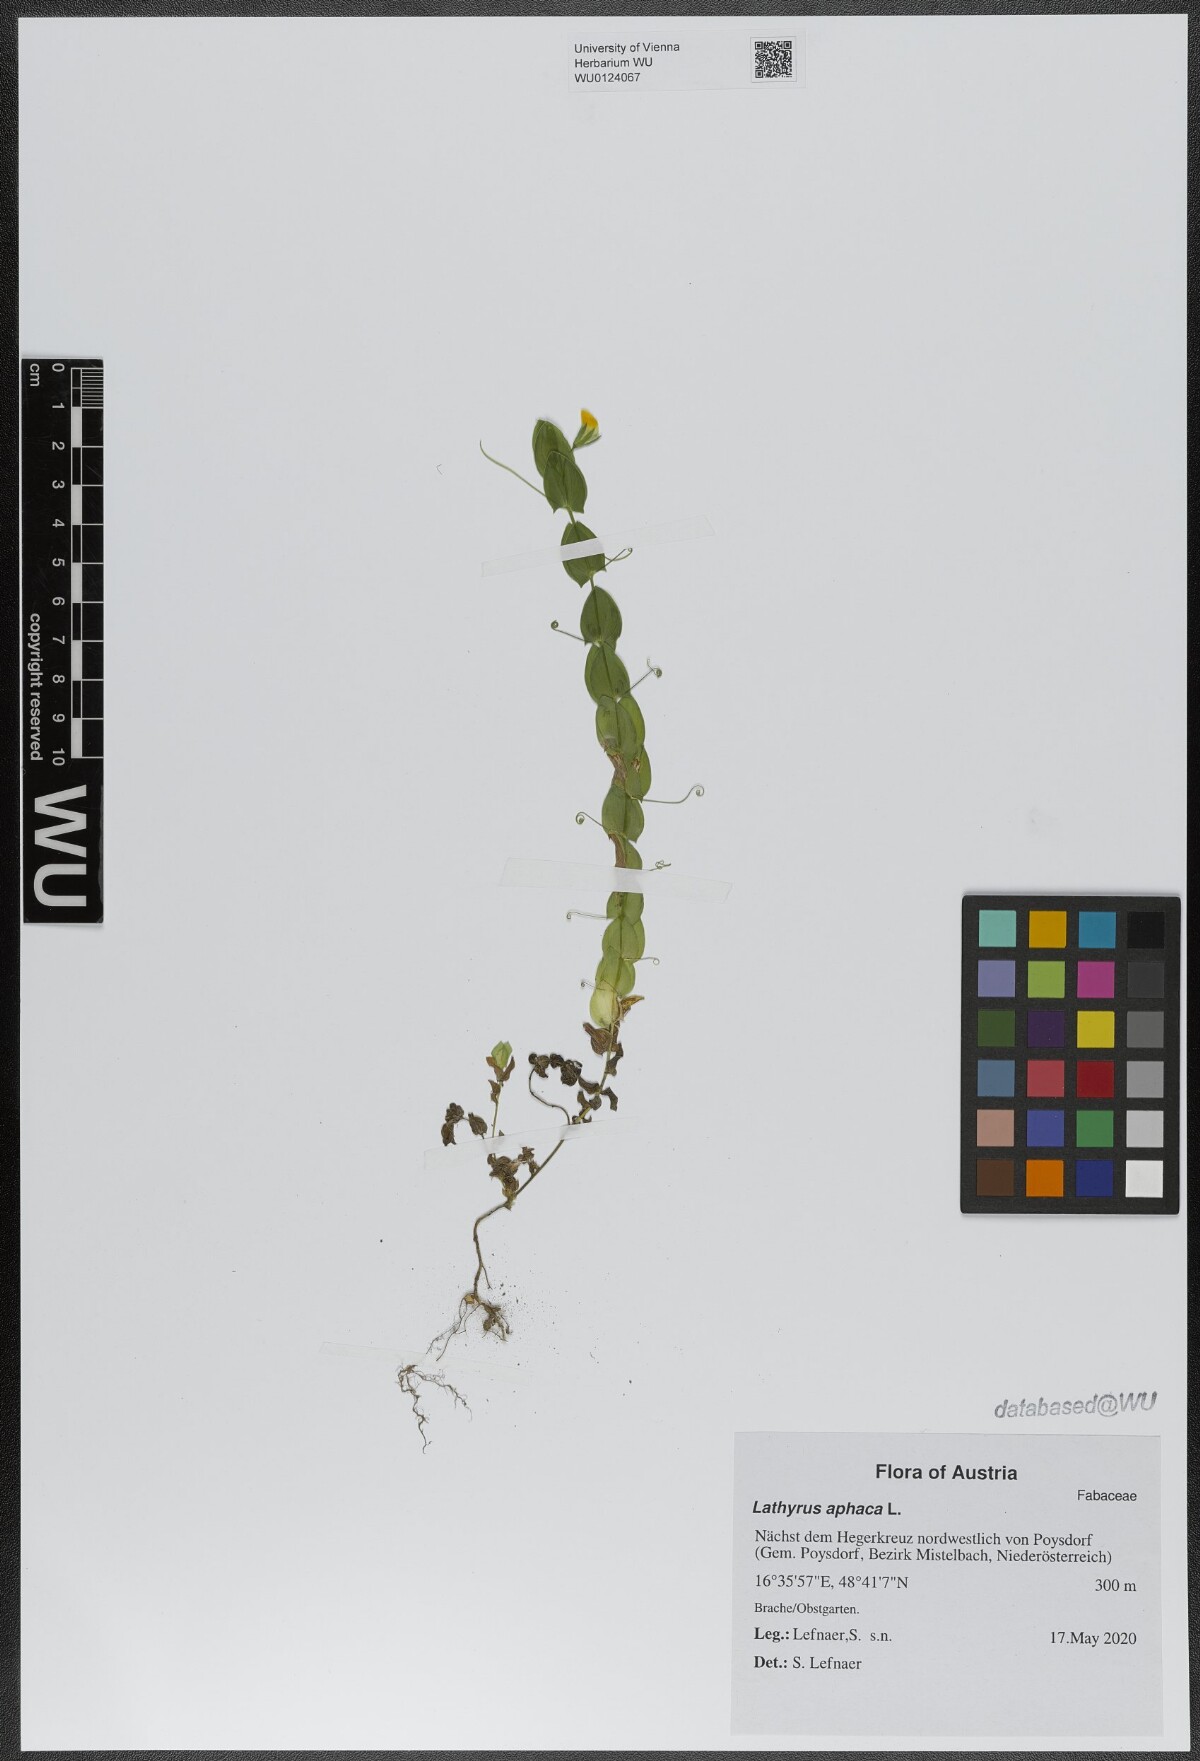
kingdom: Plantae
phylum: Tracheophyta
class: Magnoliopsida
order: Fabales
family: Fabaceae
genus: Lathyrus
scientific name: Lathyrus aphaca
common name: Yellow vetchling
